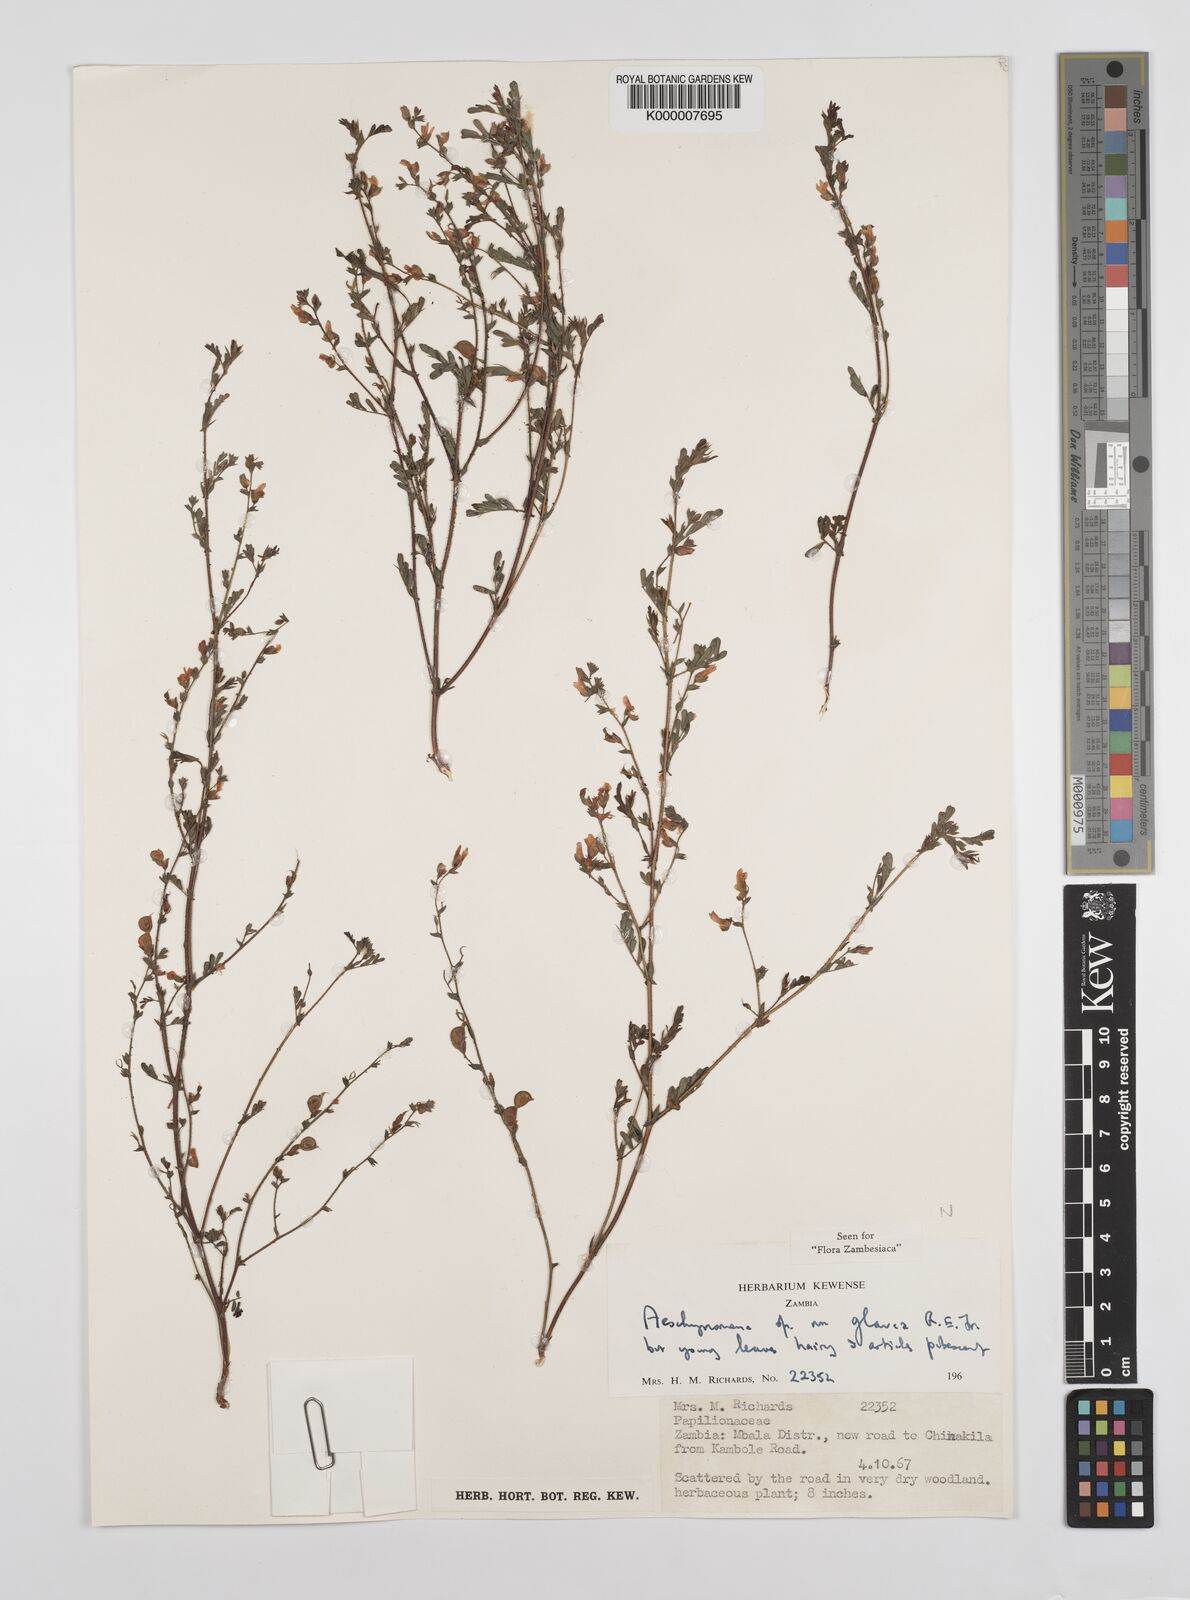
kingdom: Plantae
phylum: Tracheophyta
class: Magnoliopsida
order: Fabales
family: Fabaceae
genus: Aeschynomene
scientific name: Aeschynomene glauca
